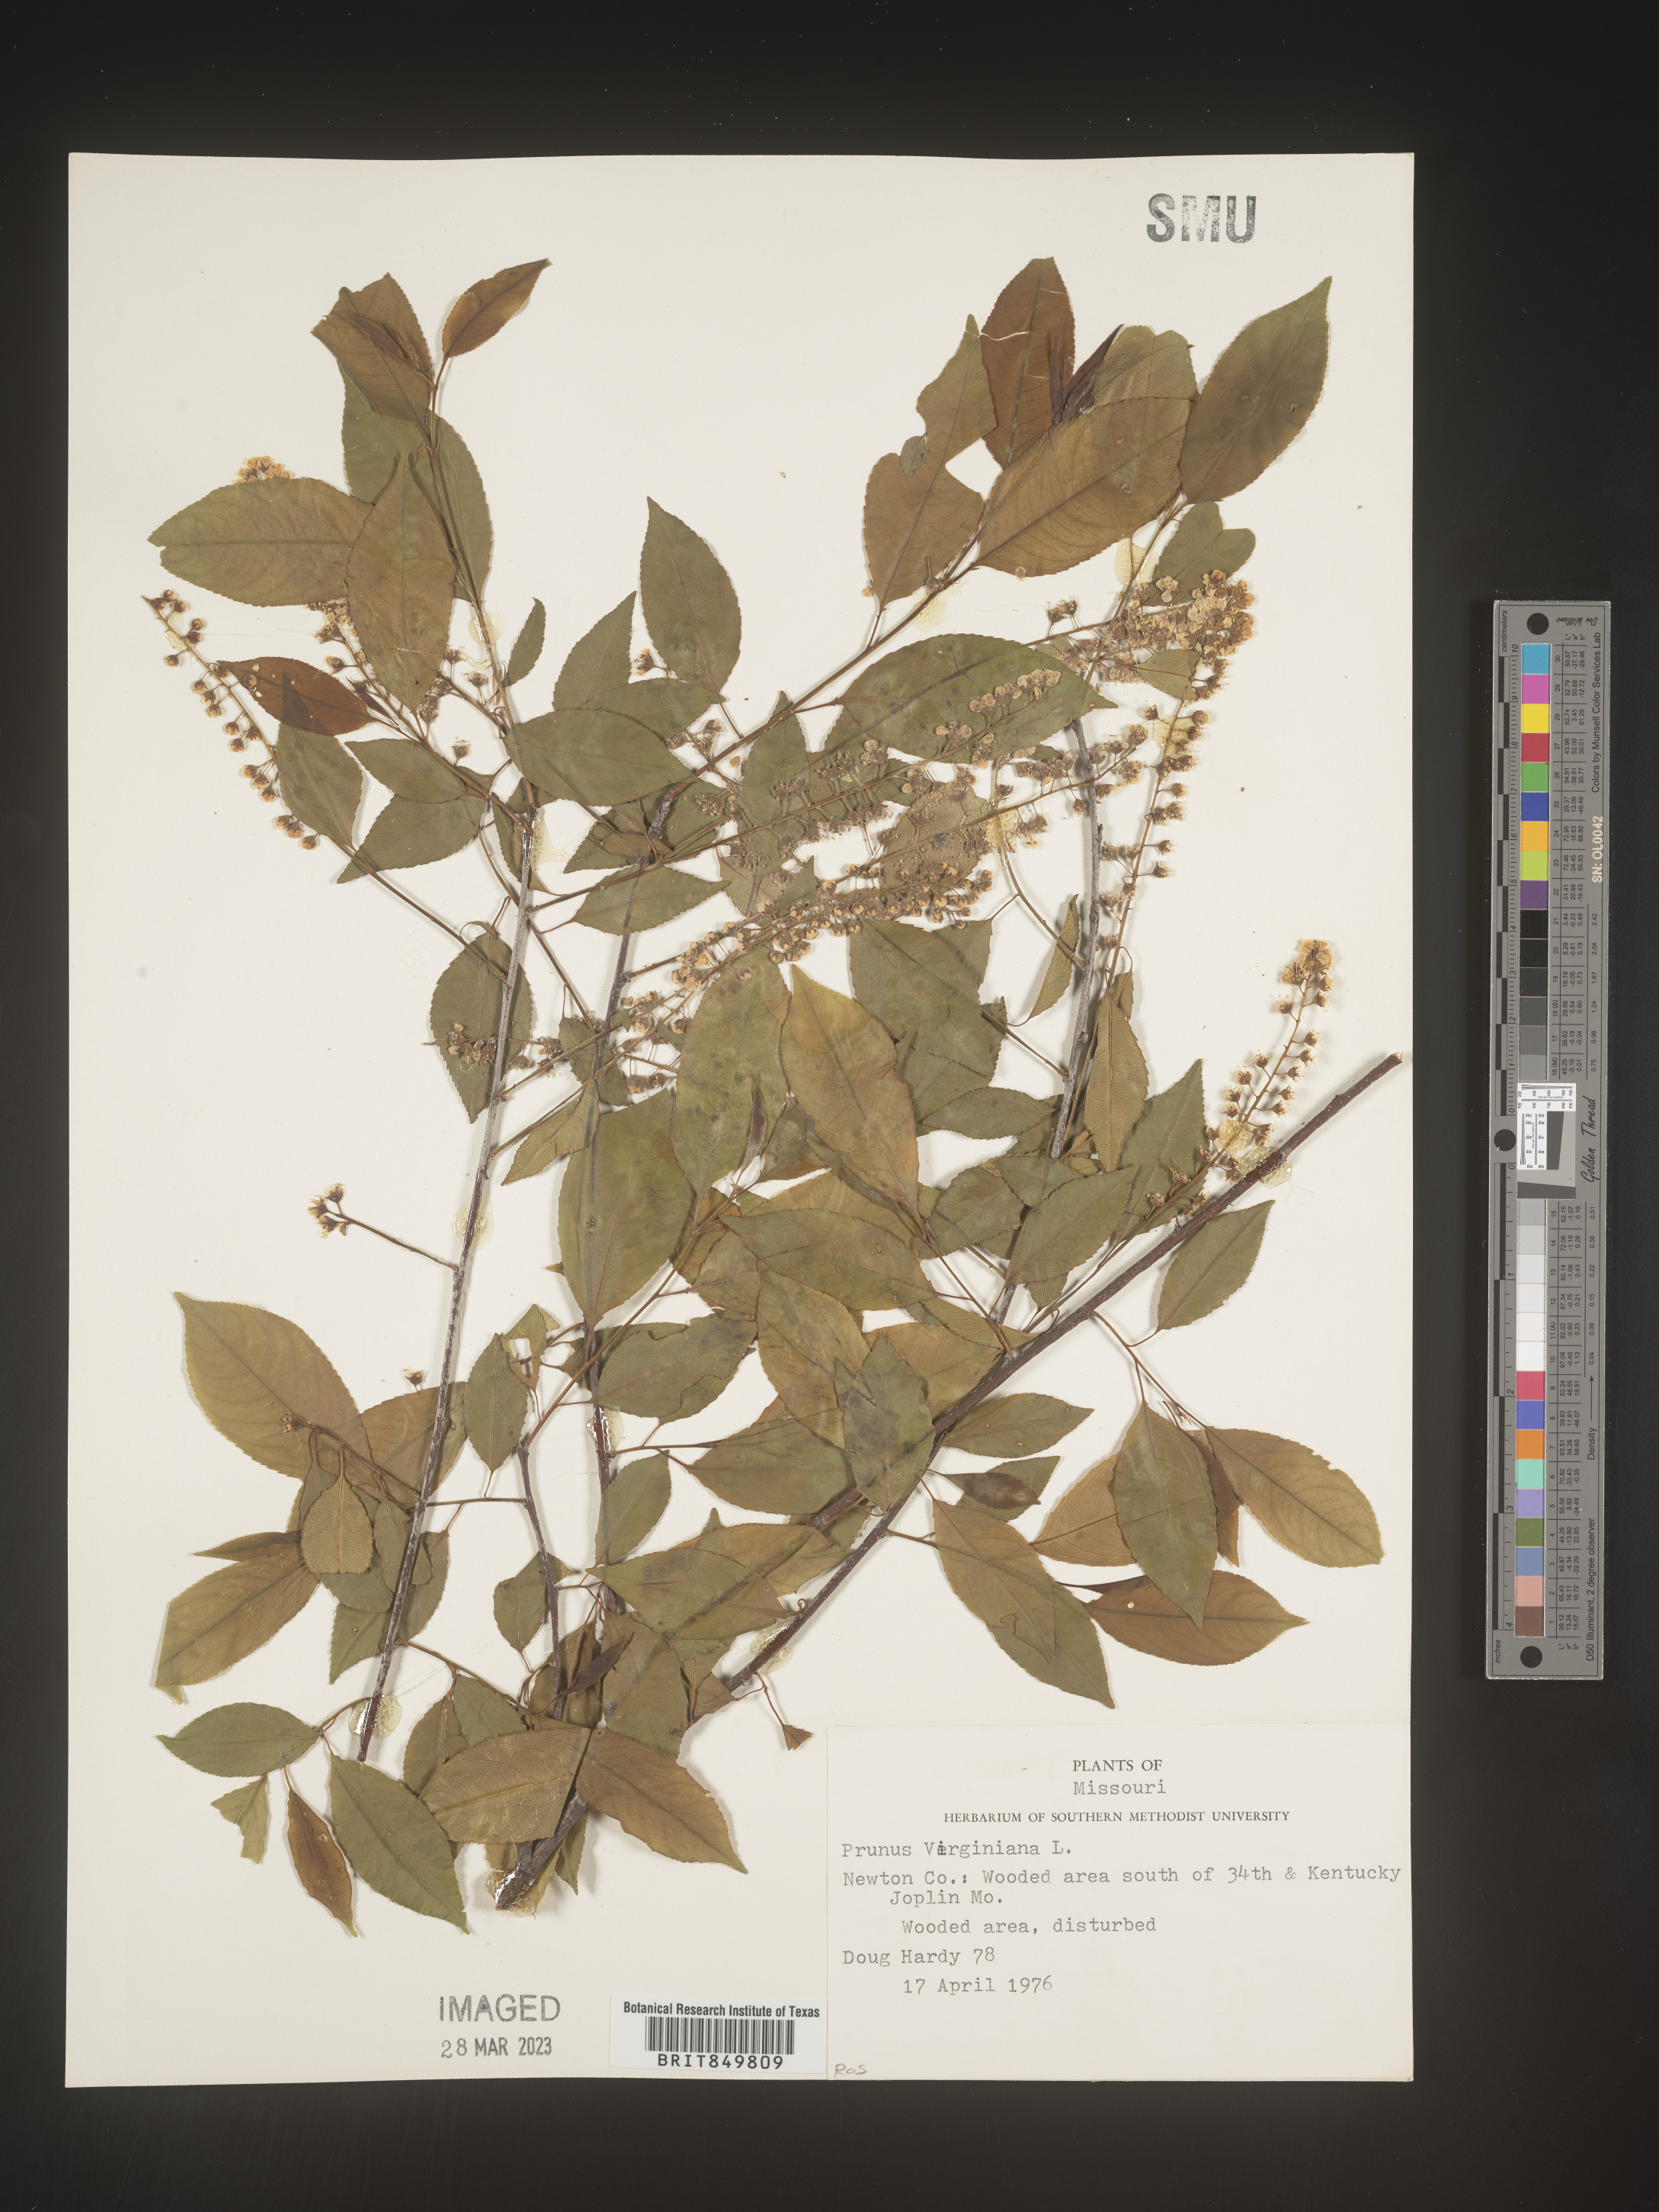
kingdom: Plantae
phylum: Tracheophyta
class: Magnoliopsida
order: Rosales
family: Rosaceae
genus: Prunus
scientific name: Prunus virginiana
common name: Chokecherry
